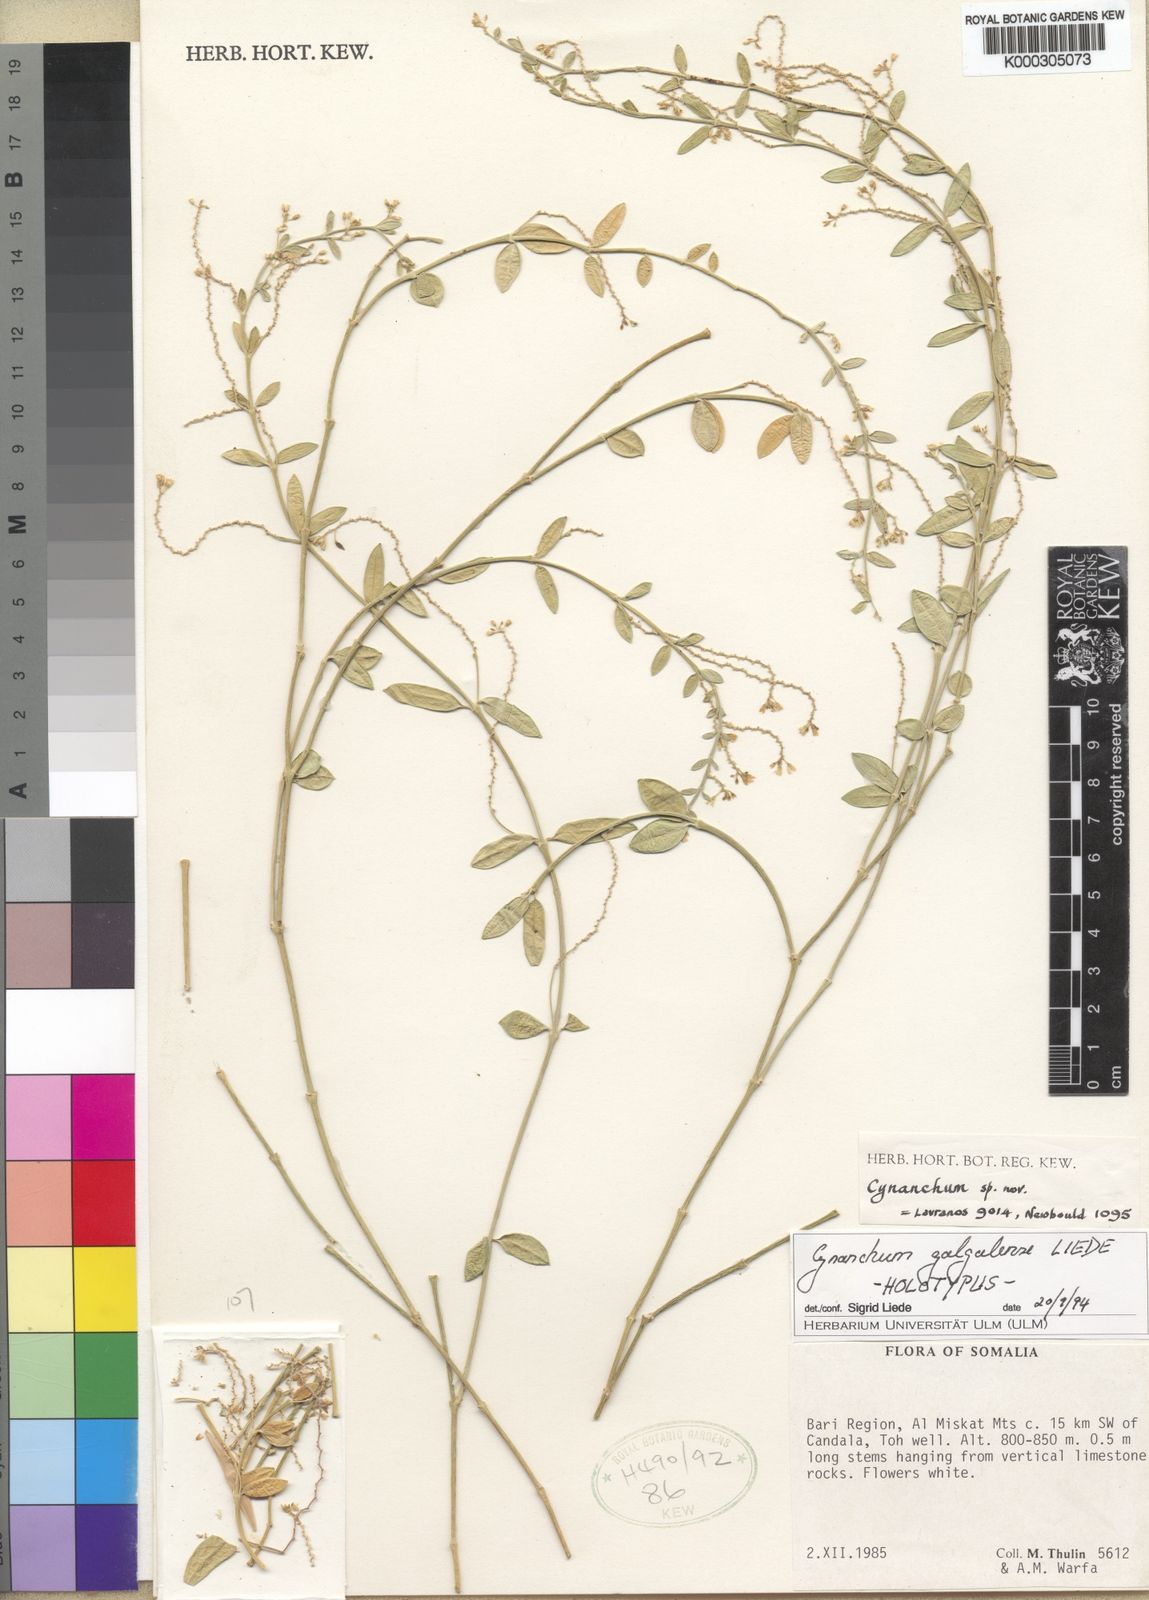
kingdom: Plantae
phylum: Tracheophyta
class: Magnoliopsida
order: Gentianales
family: Apocynaceae
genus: Calciphila
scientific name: Calciphila galgalensis
